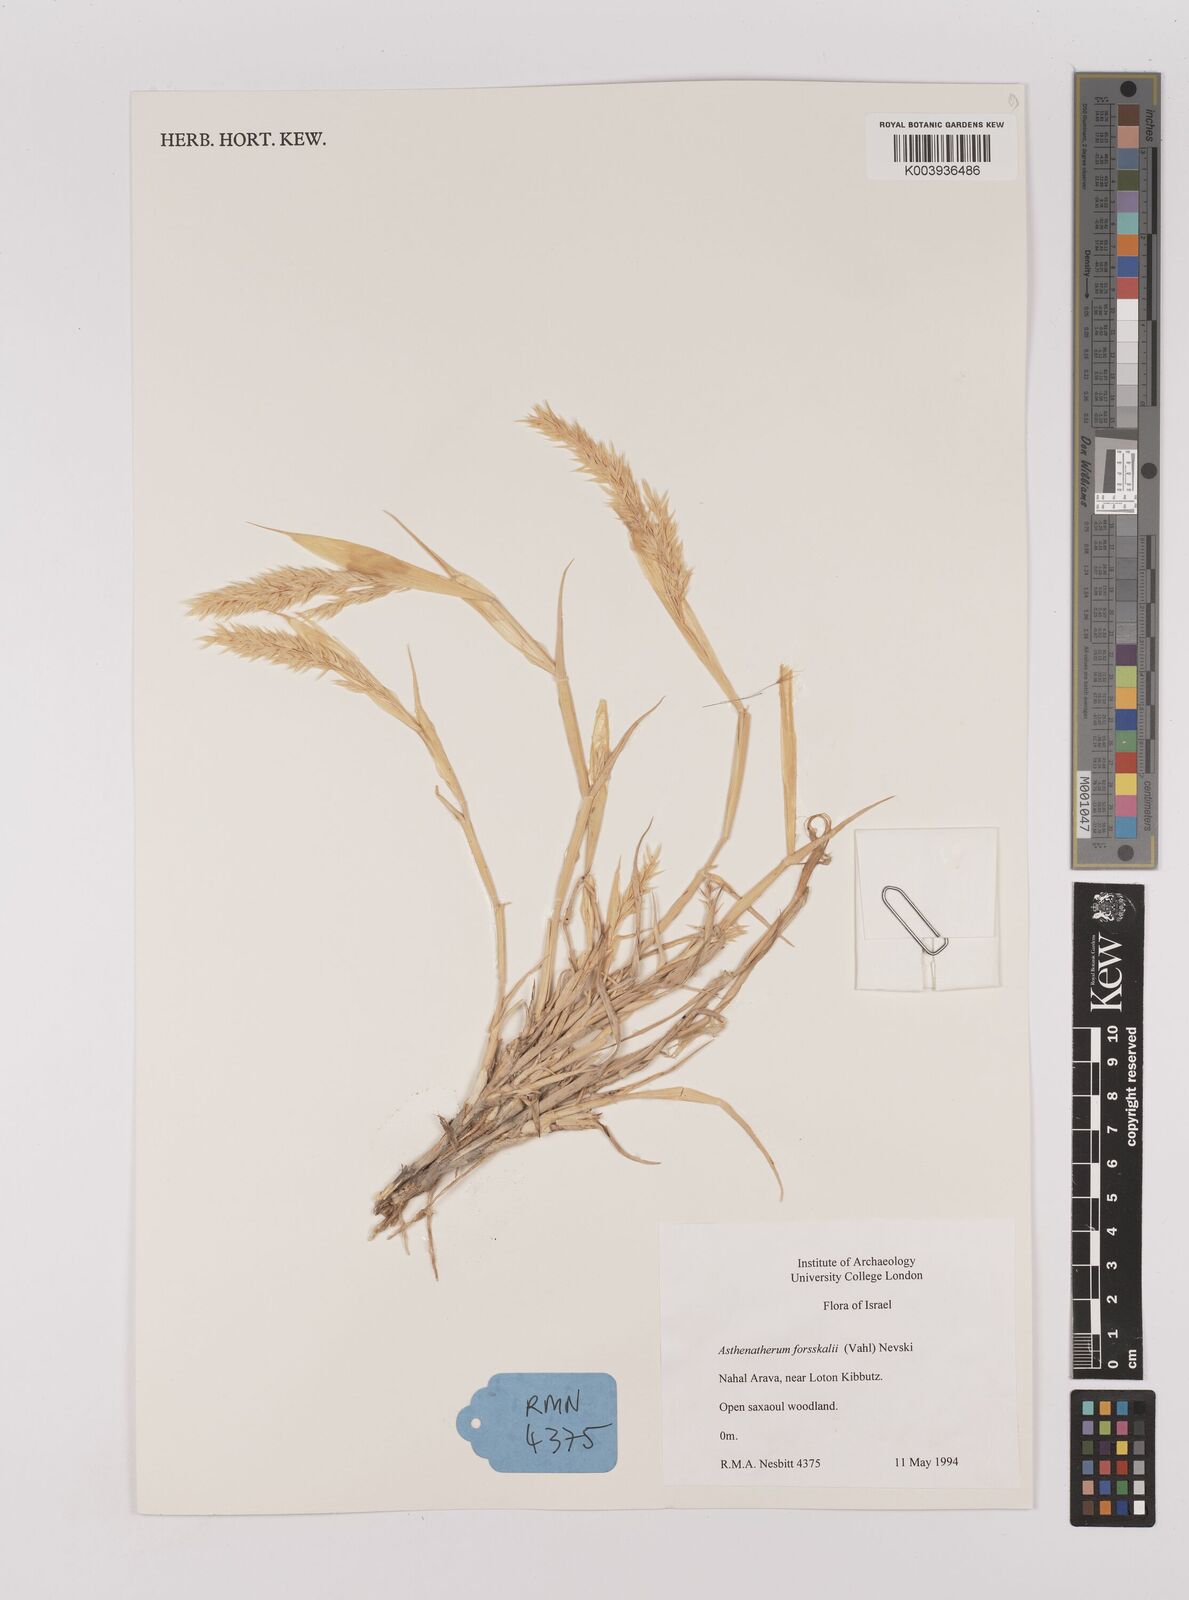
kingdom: Plantae
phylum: Tracheophyta
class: Liliopsida
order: Poales
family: Poaceae
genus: Centropodia
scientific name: Centropodia forskaolii
